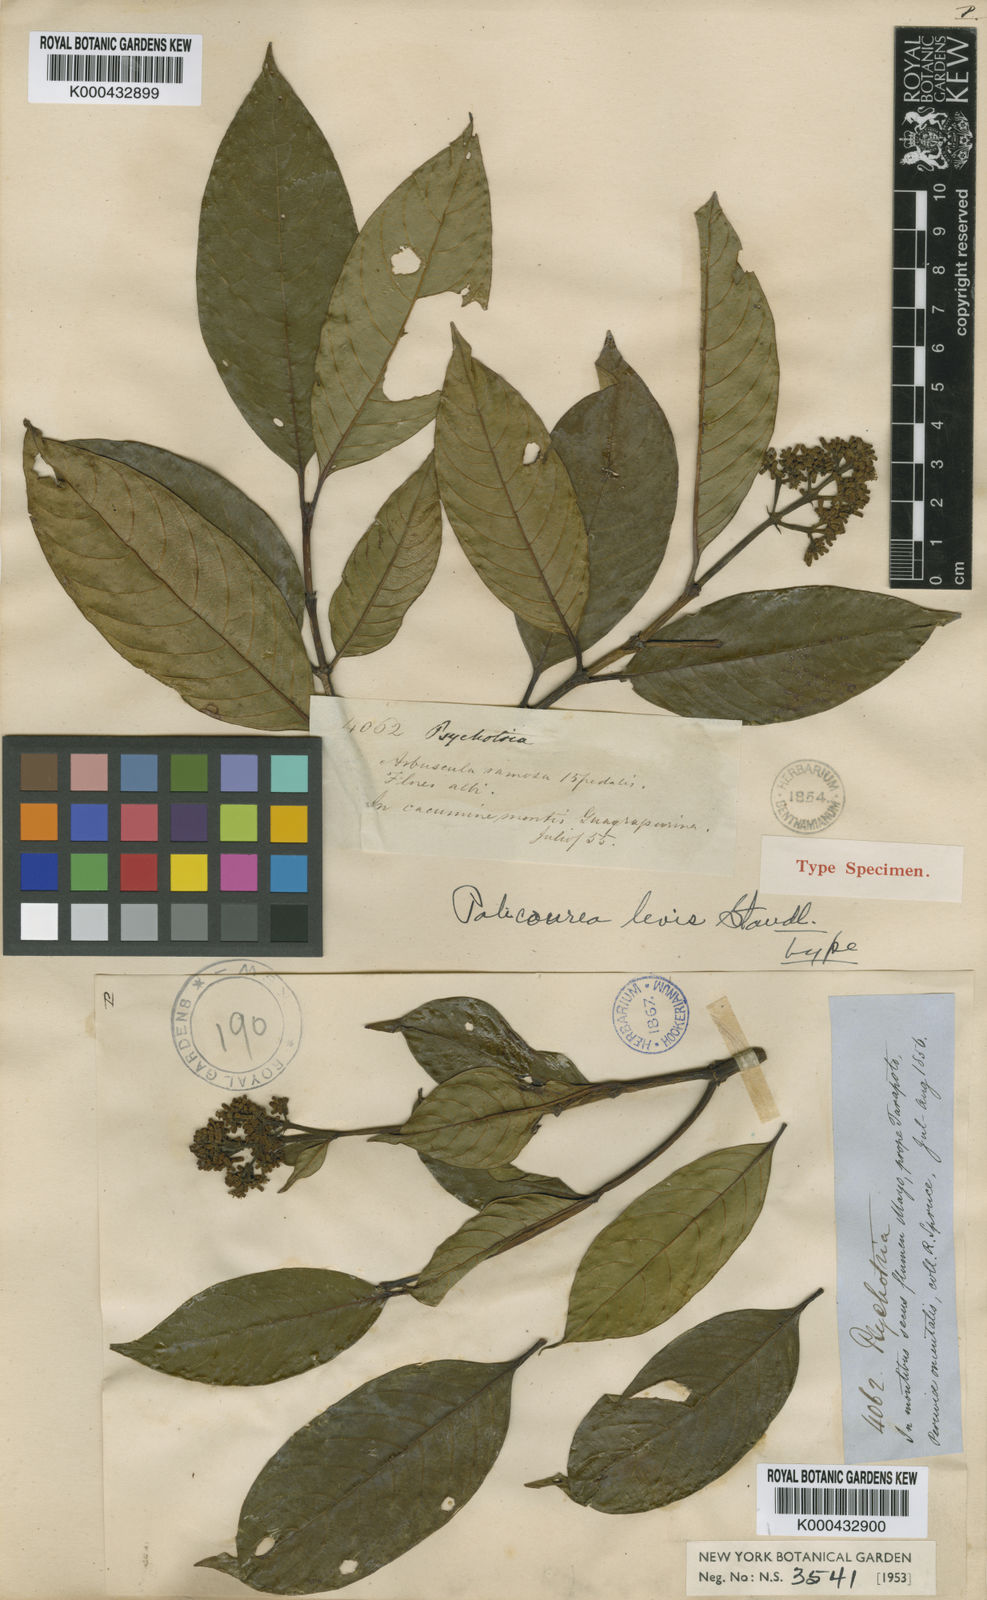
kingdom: Plantae
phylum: Tracheophyta
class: Magnoliopsida
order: Gentianales
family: Rubiaceae
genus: Palicourea
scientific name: Palicourea levis
